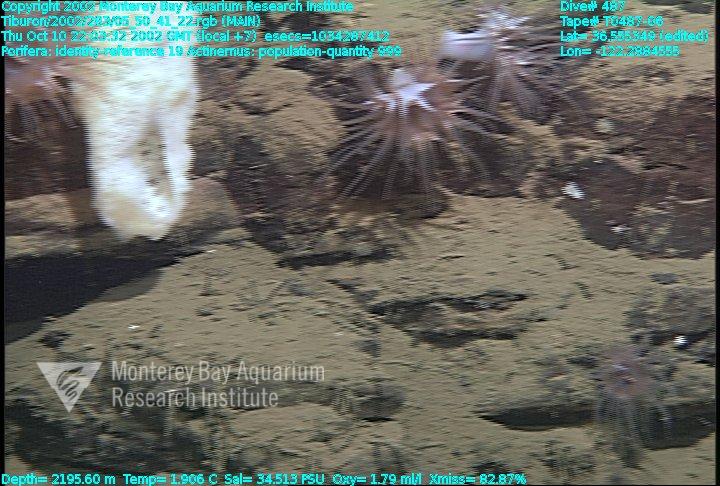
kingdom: Animalia
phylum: Porifera
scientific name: Porifera
